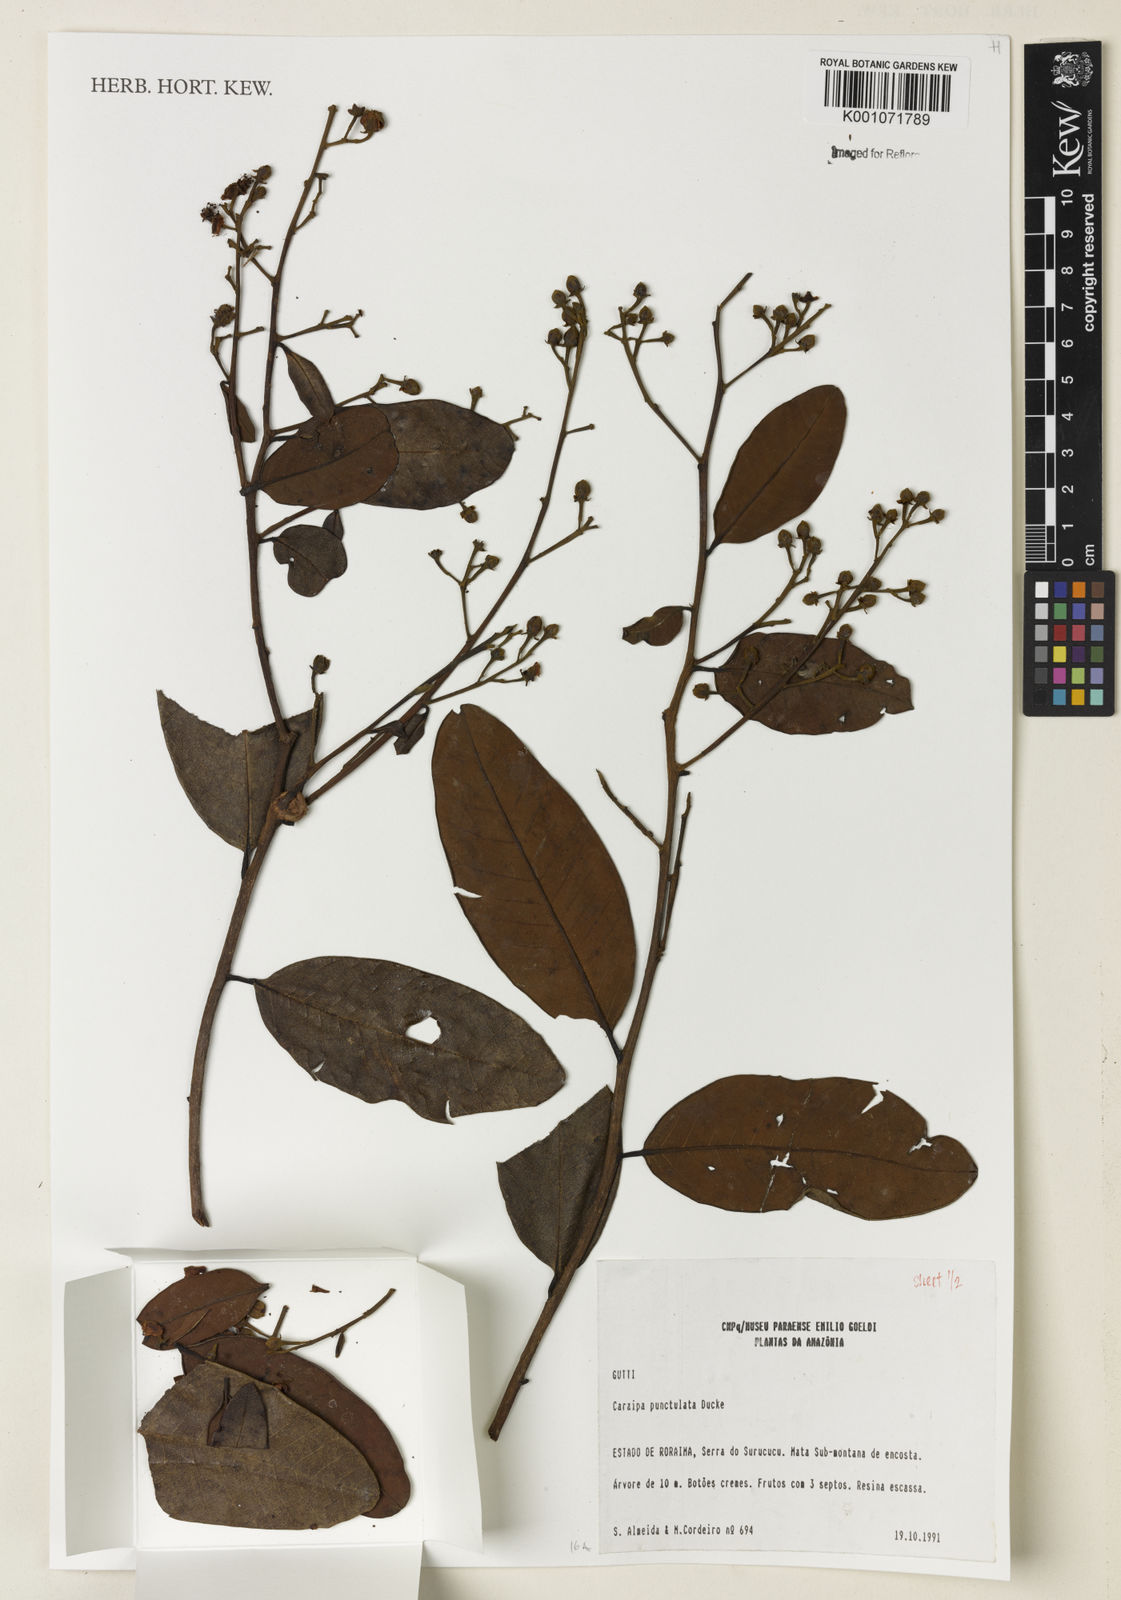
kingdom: Plantae
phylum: Tracheophyta
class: Magnoliopsida
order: Malpighiales
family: Calophyllaceae
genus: Caraipa
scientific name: Caraipa punctulata
